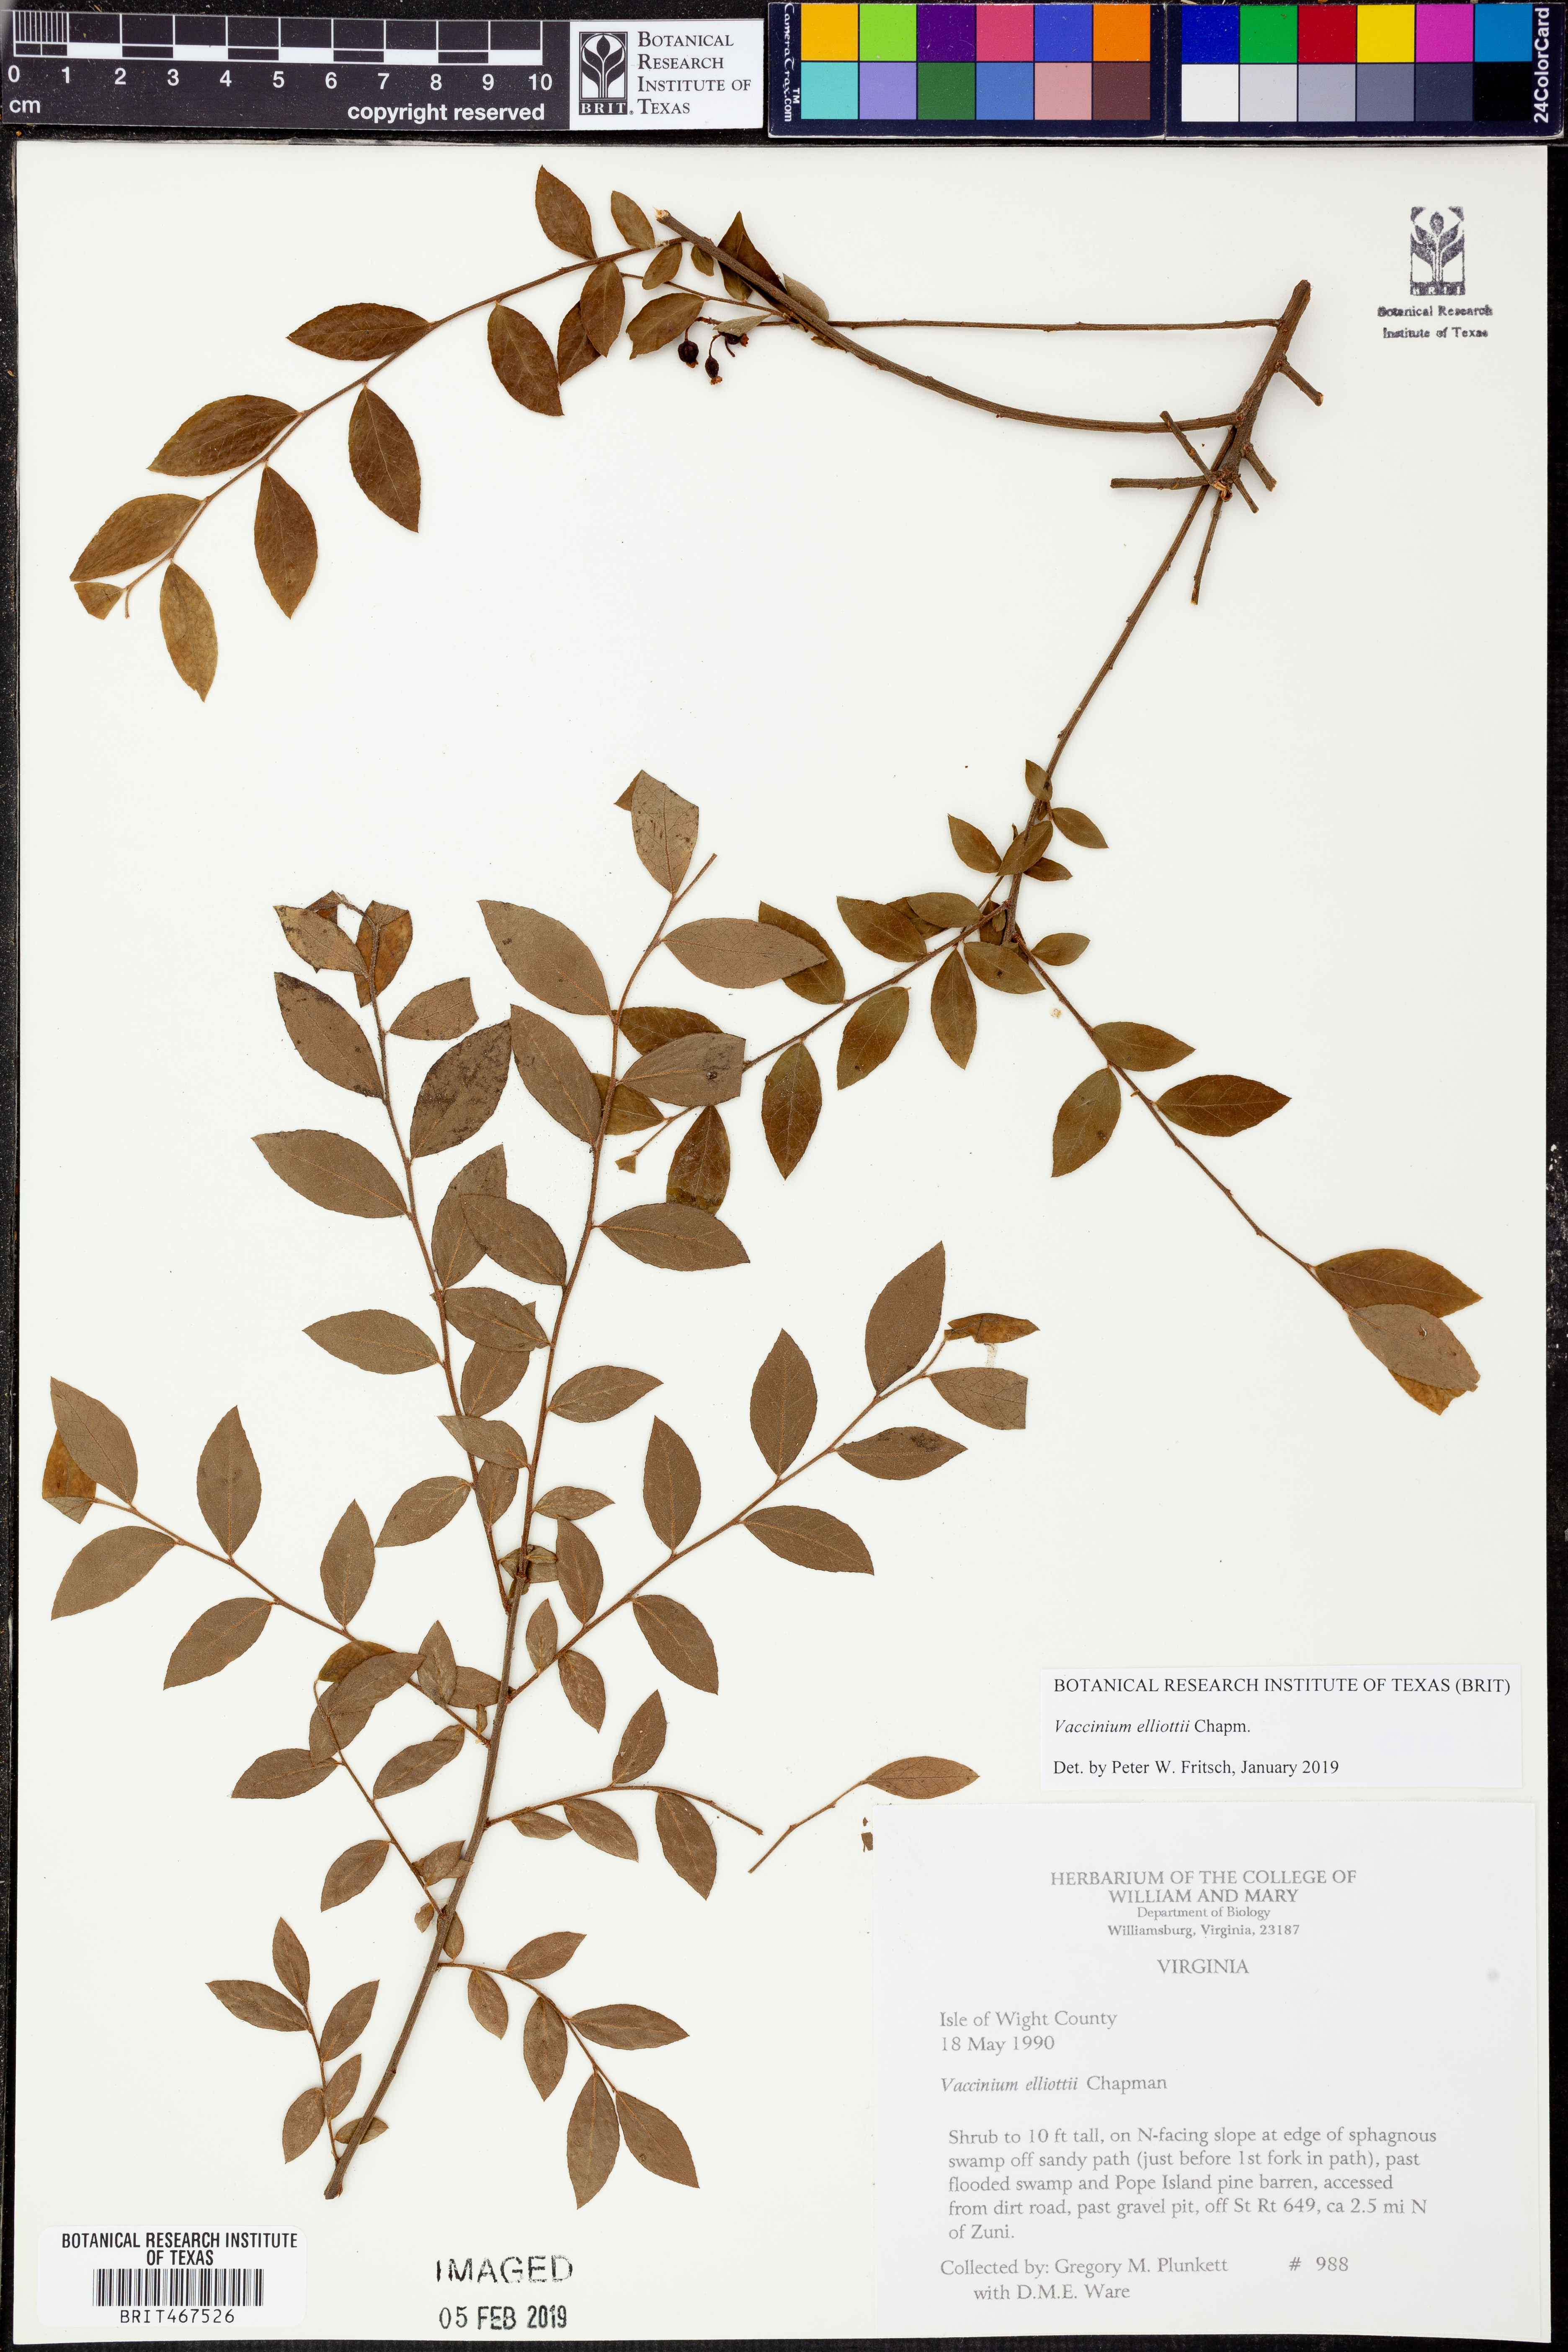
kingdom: Plantae
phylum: Tracheophyta
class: Magnoliopsida
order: Ericales
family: Ericaceae
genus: Vaccinium
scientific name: Vaccinium corymbosum
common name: Blueberry
